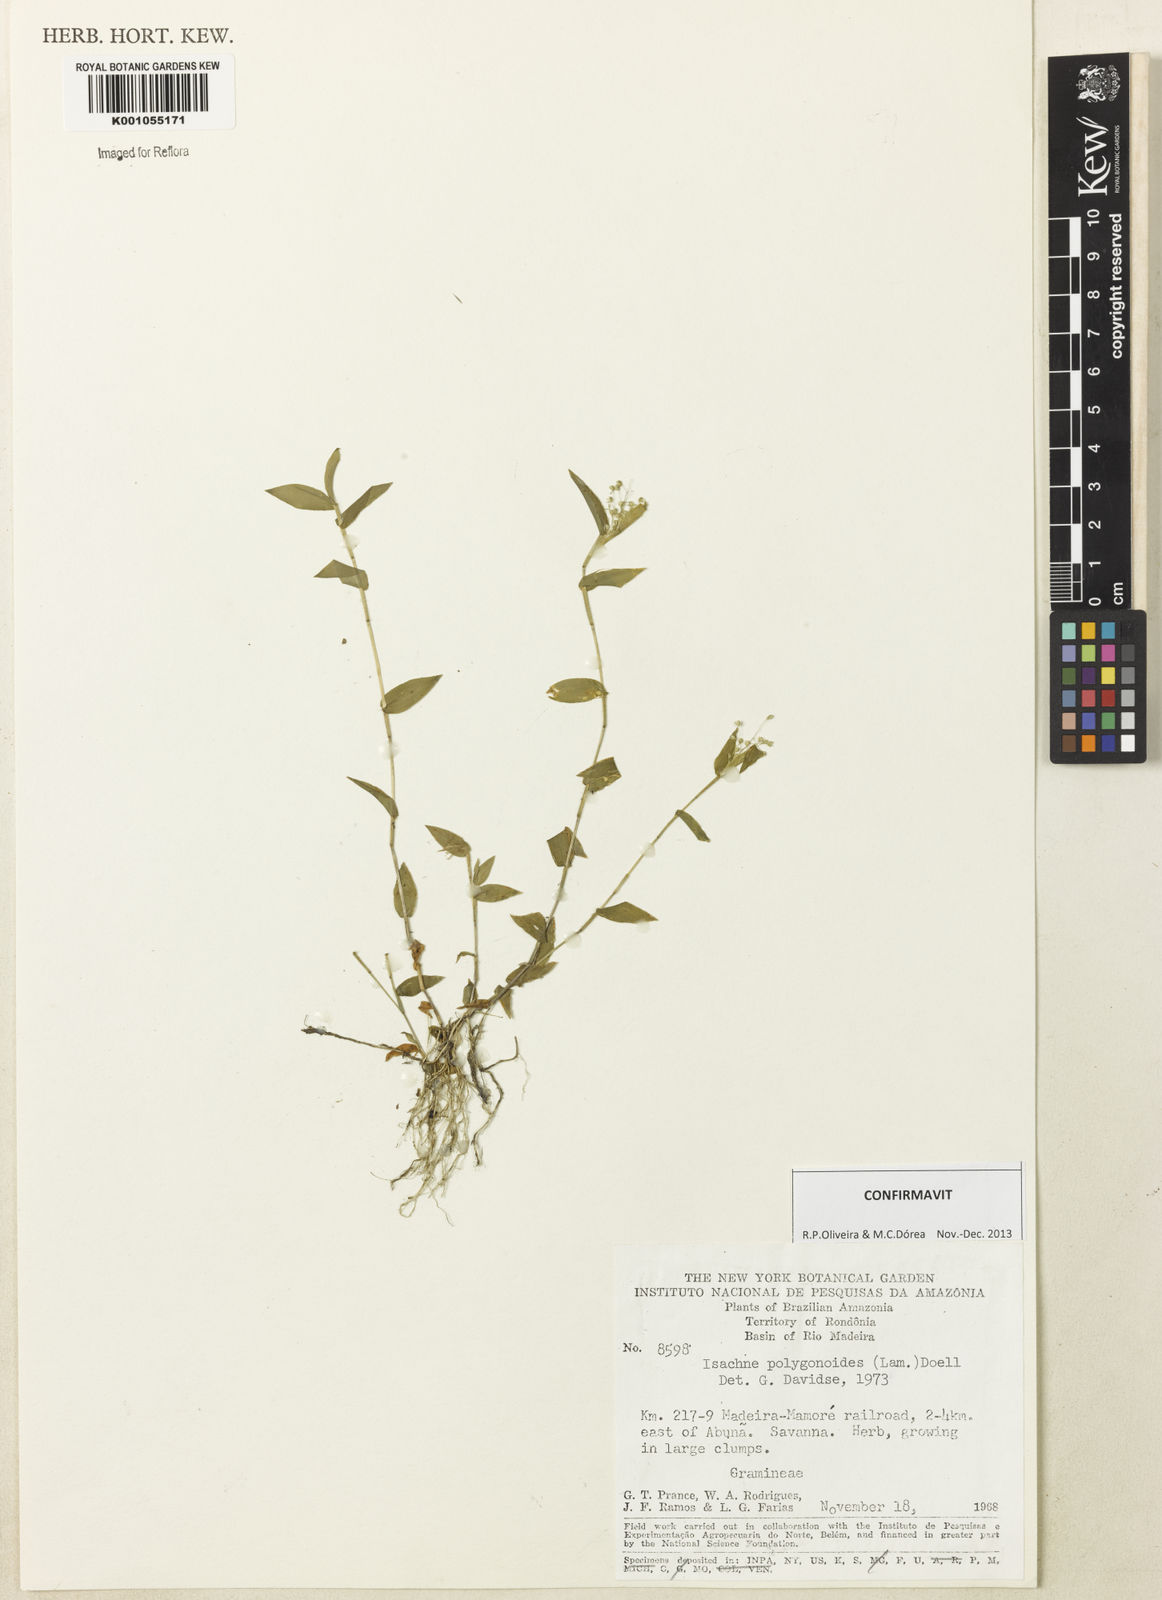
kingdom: Plantae
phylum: Tracheophyta
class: Liliopsida
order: Poales
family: Poaceae
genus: Isachne
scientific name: Isachne
